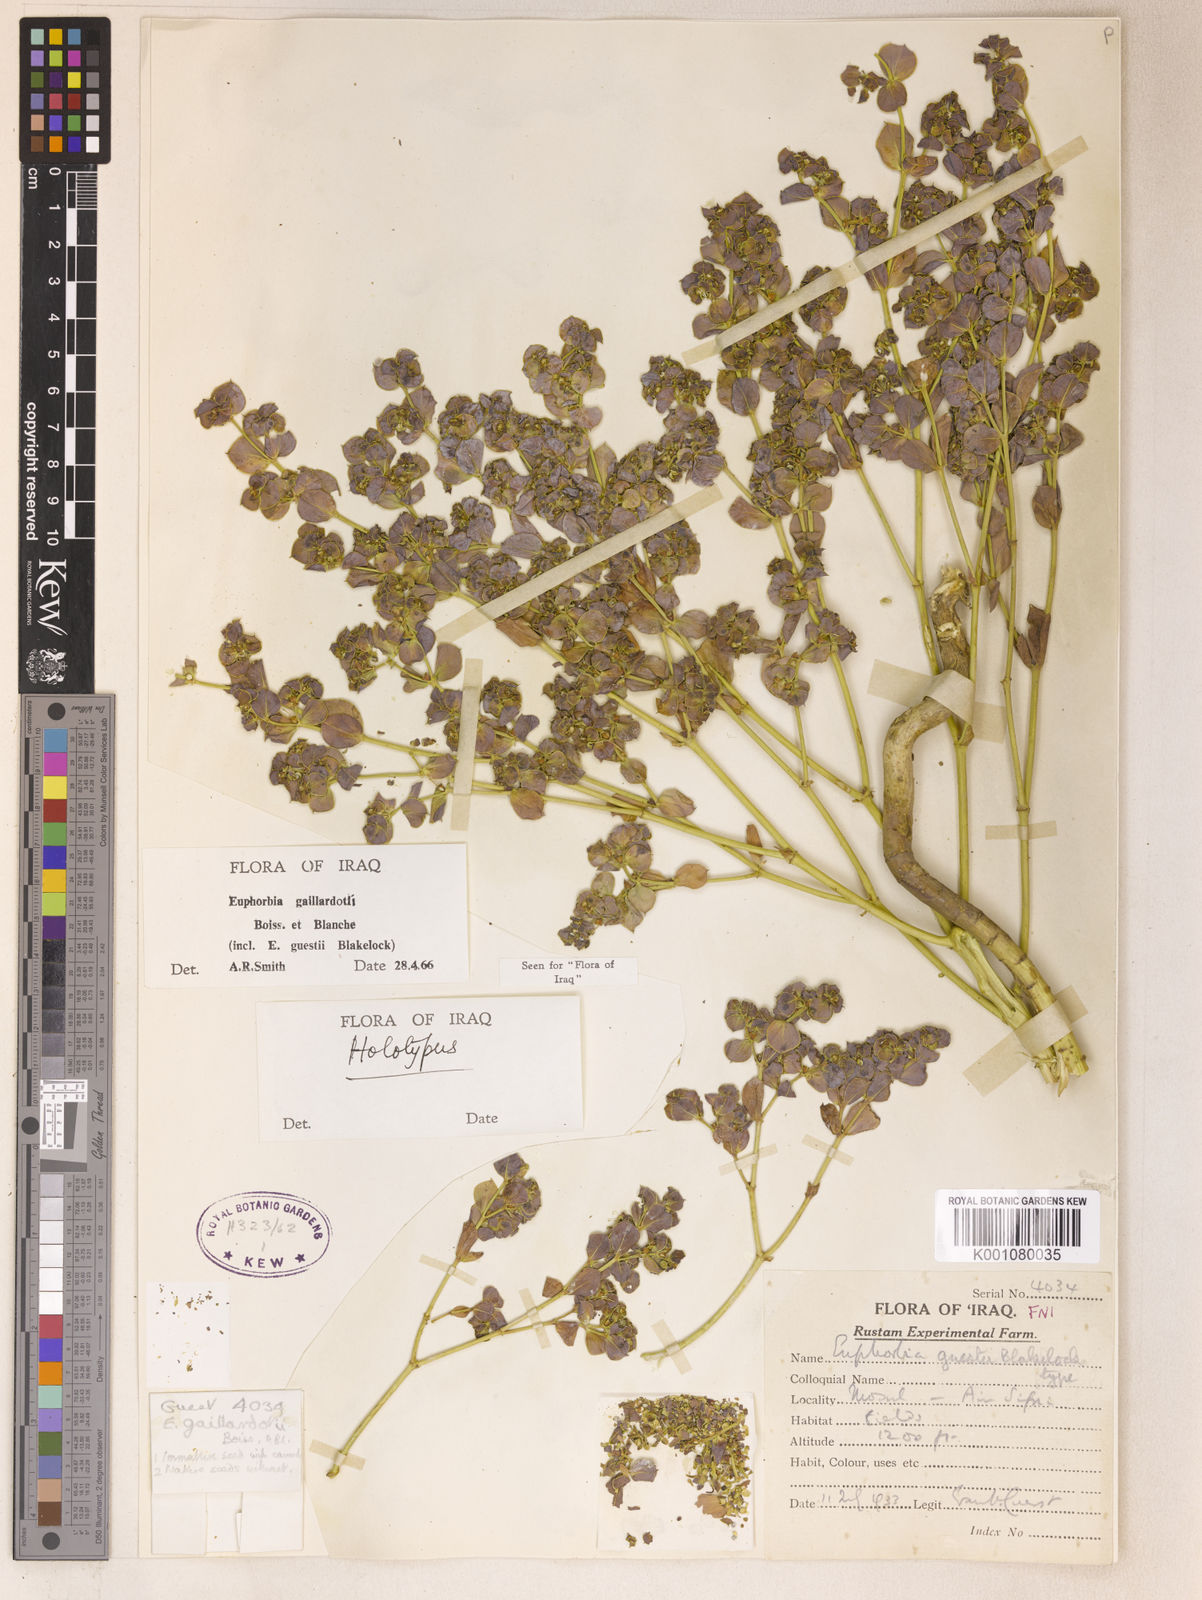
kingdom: Plantae
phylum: Tracheophyta
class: Magnoliopsida
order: Malpighiales
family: Euphorbiaceae
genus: Euphorbia
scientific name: Euphorbia gaillardotii
